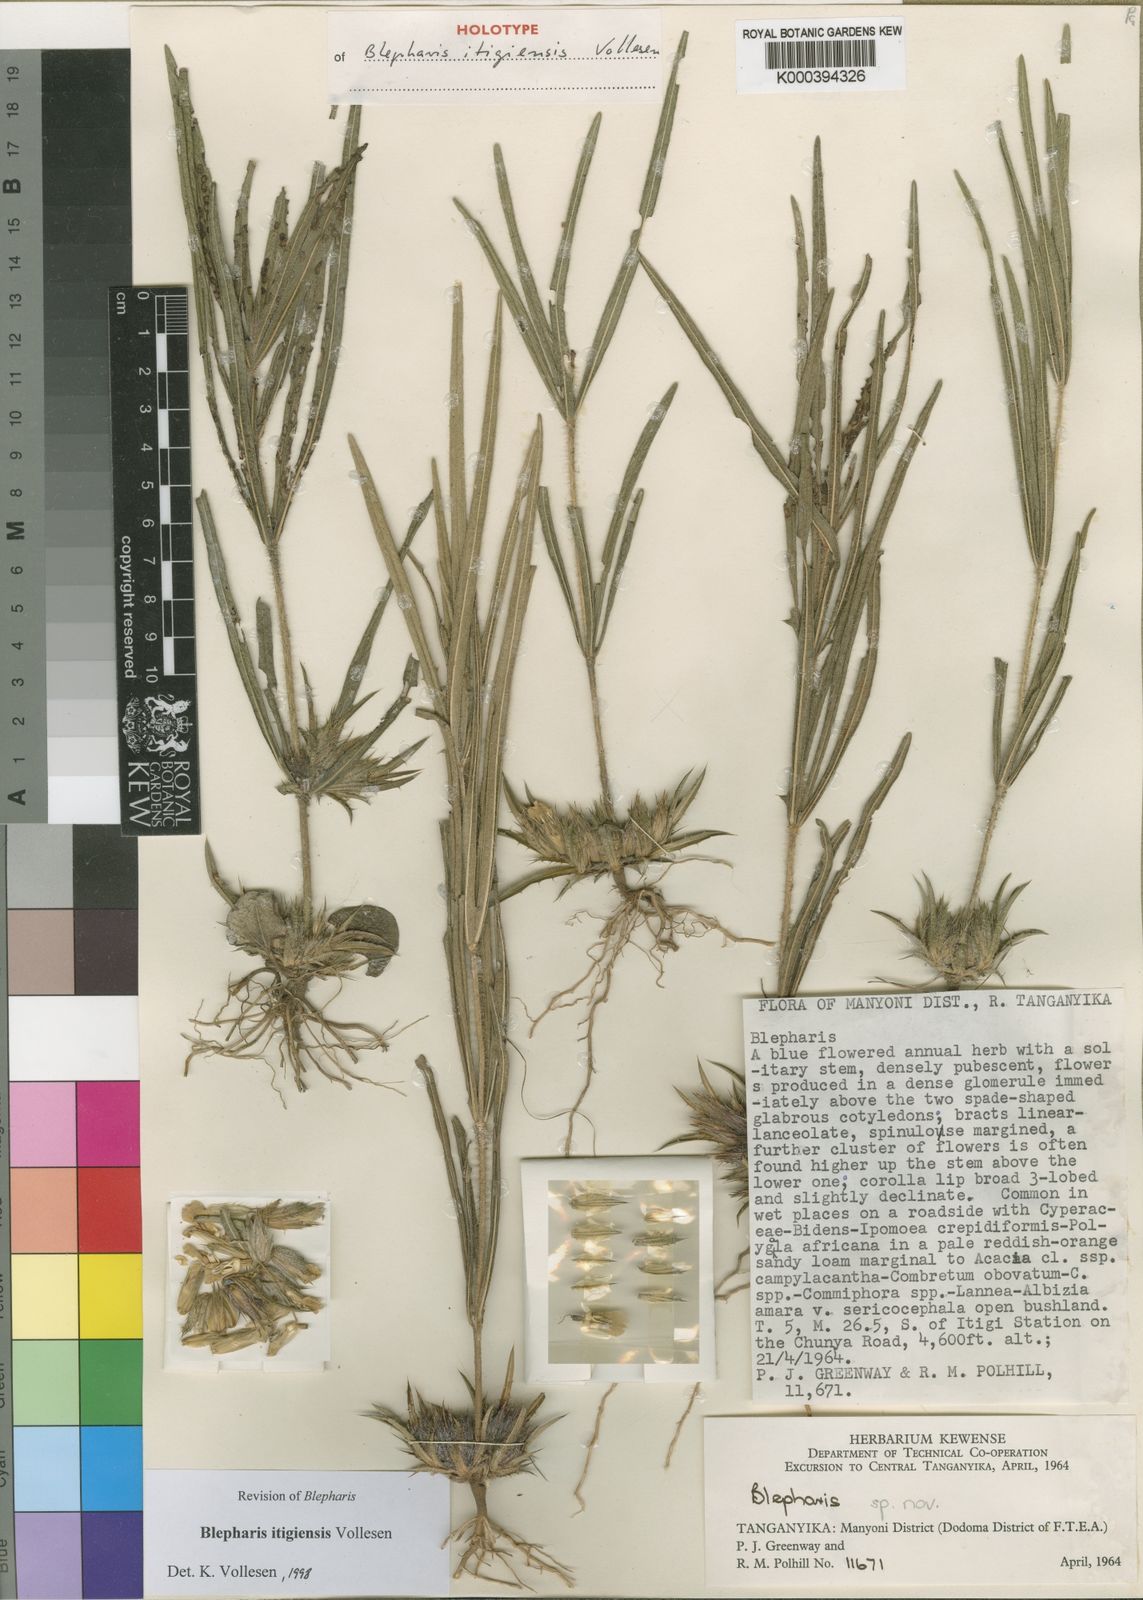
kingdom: Plantae
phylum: Tracheophyta
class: Magnoliopsida
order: Lamiales
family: Acanthaceae
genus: Blepharis
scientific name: Blepharis itigiensis
